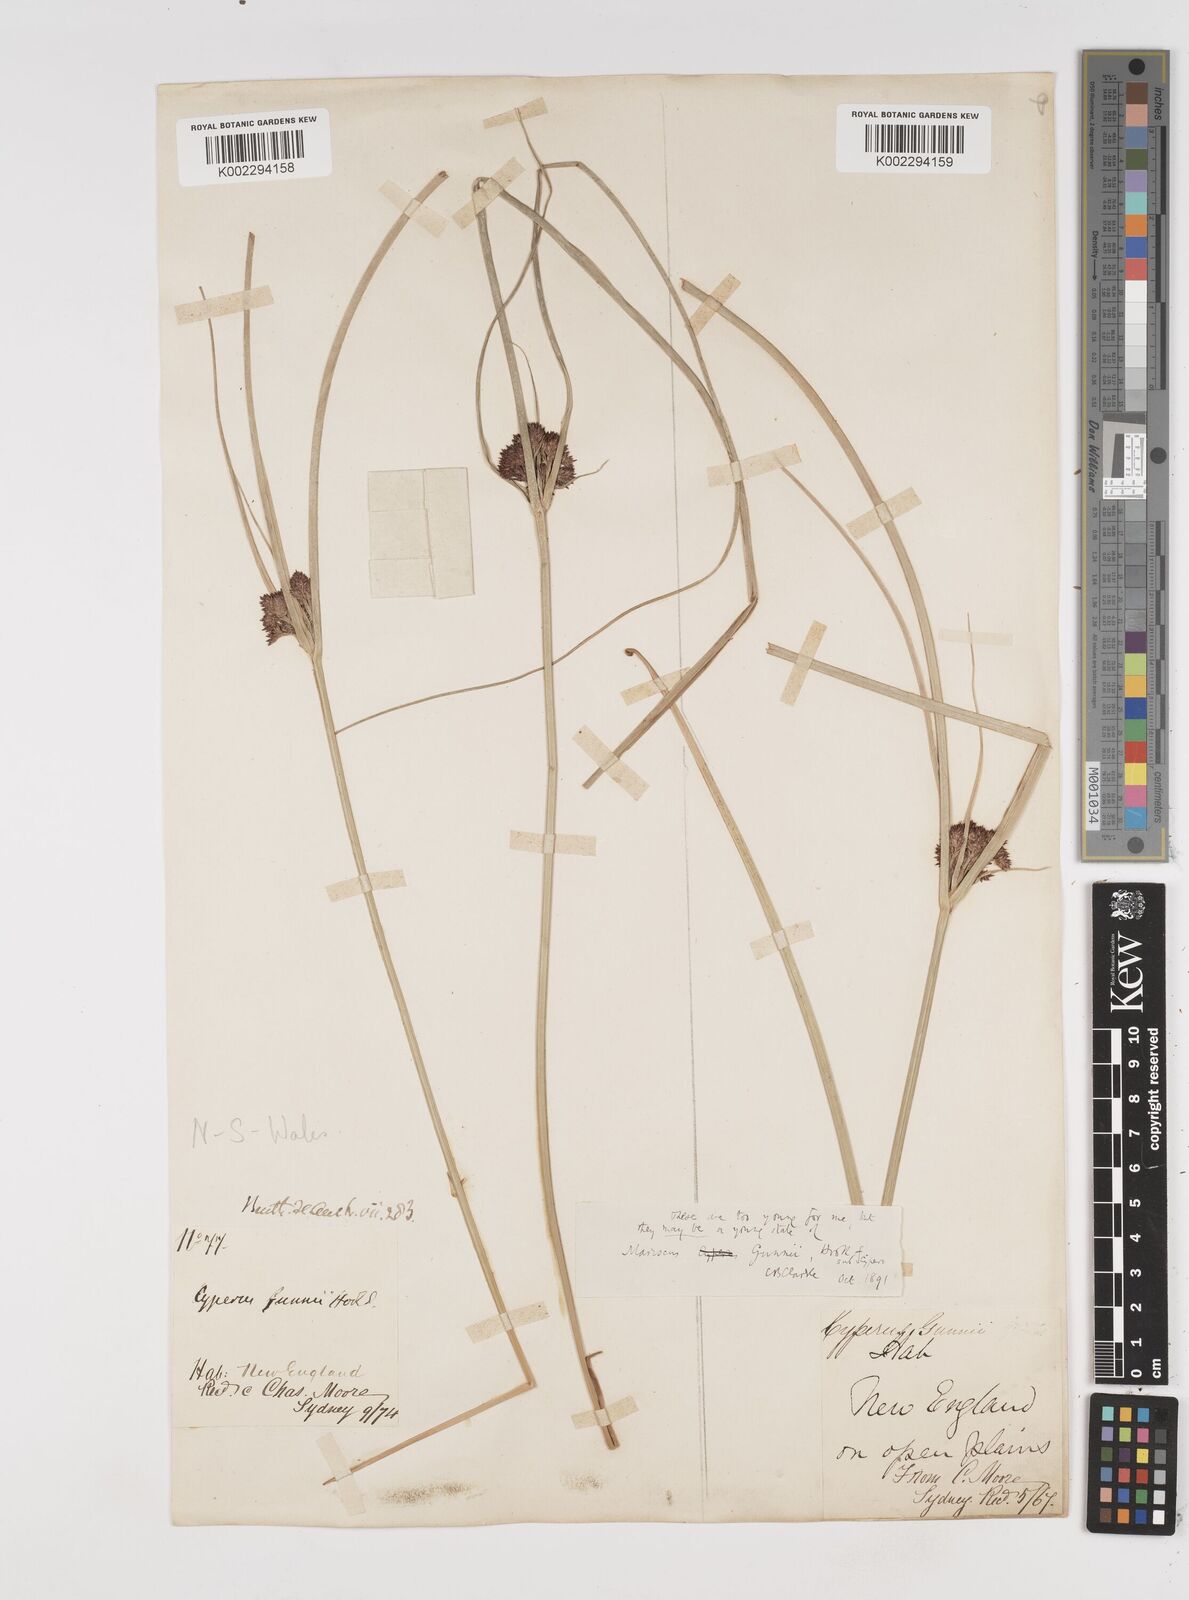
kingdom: Plantae
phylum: Tracheophyta
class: Liliopsida
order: Poales
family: Cyperaceae
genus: Cyperus
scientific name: Cyperus gunnii
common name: Flecked flat-sedge
